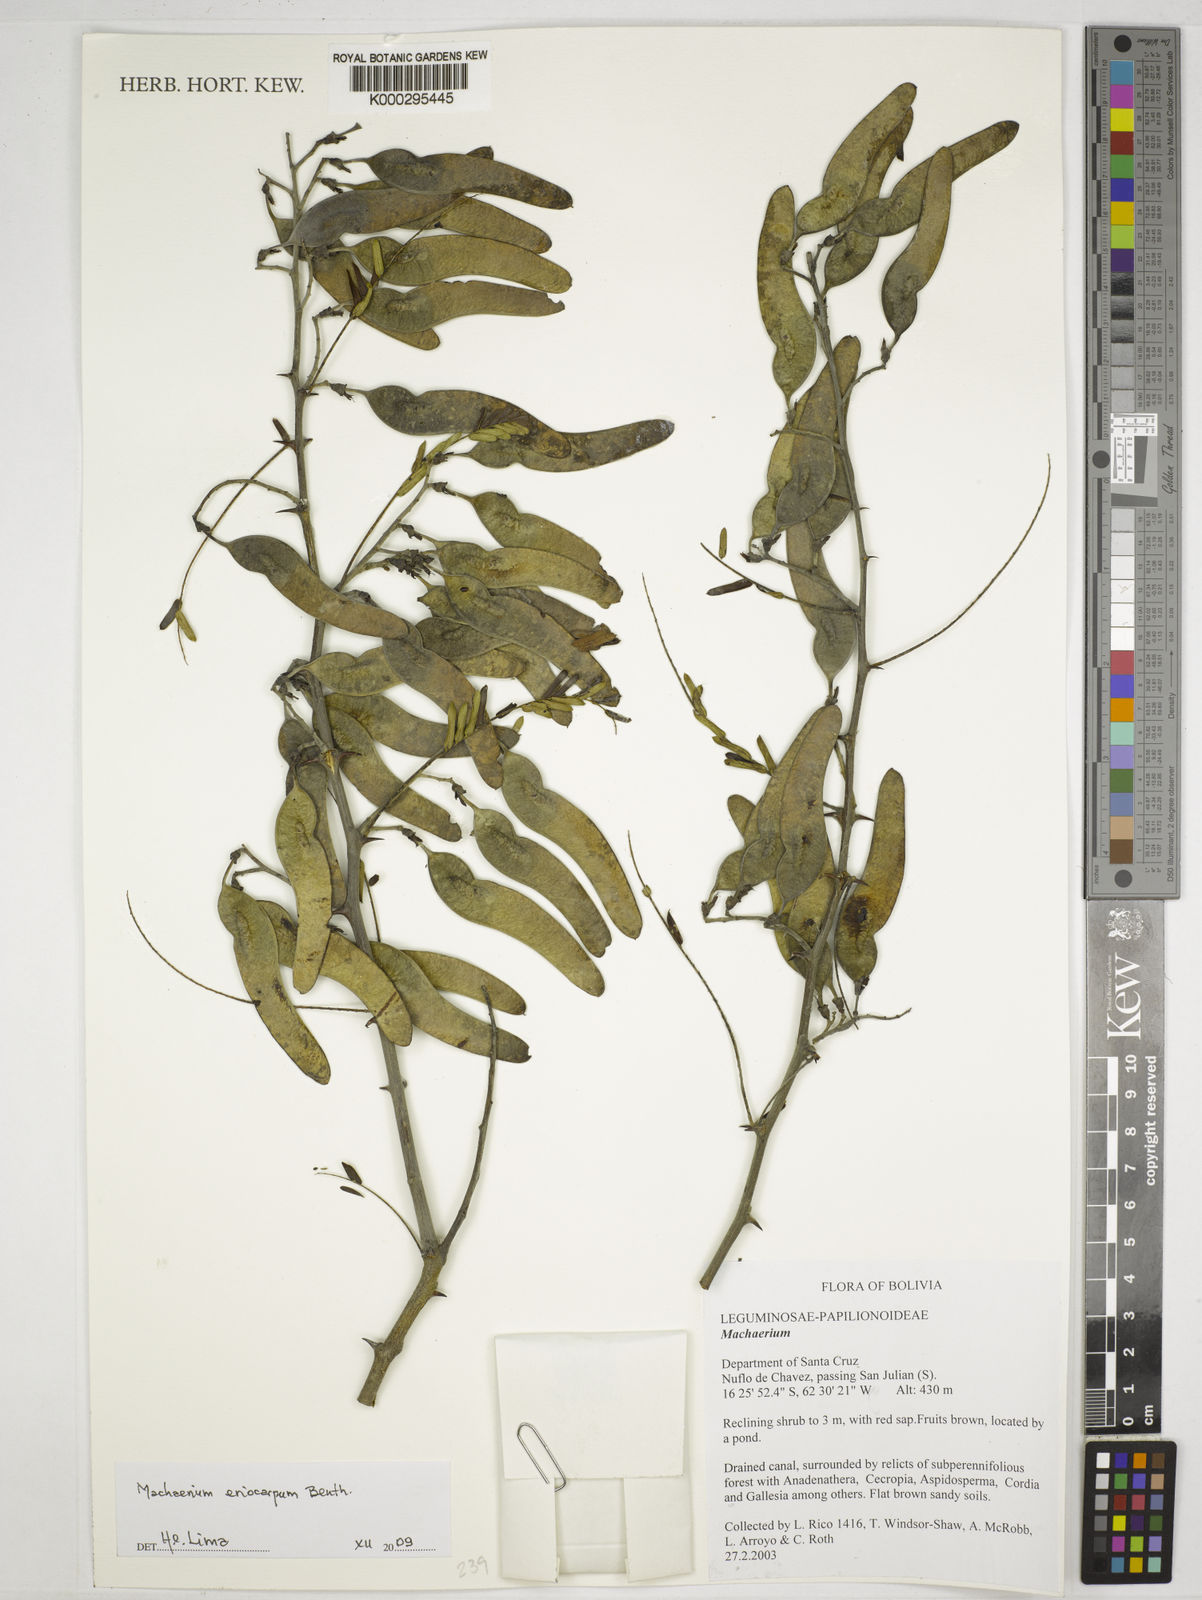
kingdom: Plantae
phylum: Tracheophyta
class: Magnoliopsida
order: Fabales
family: Fabaceae
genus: Machaerium
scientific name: Machaerium
